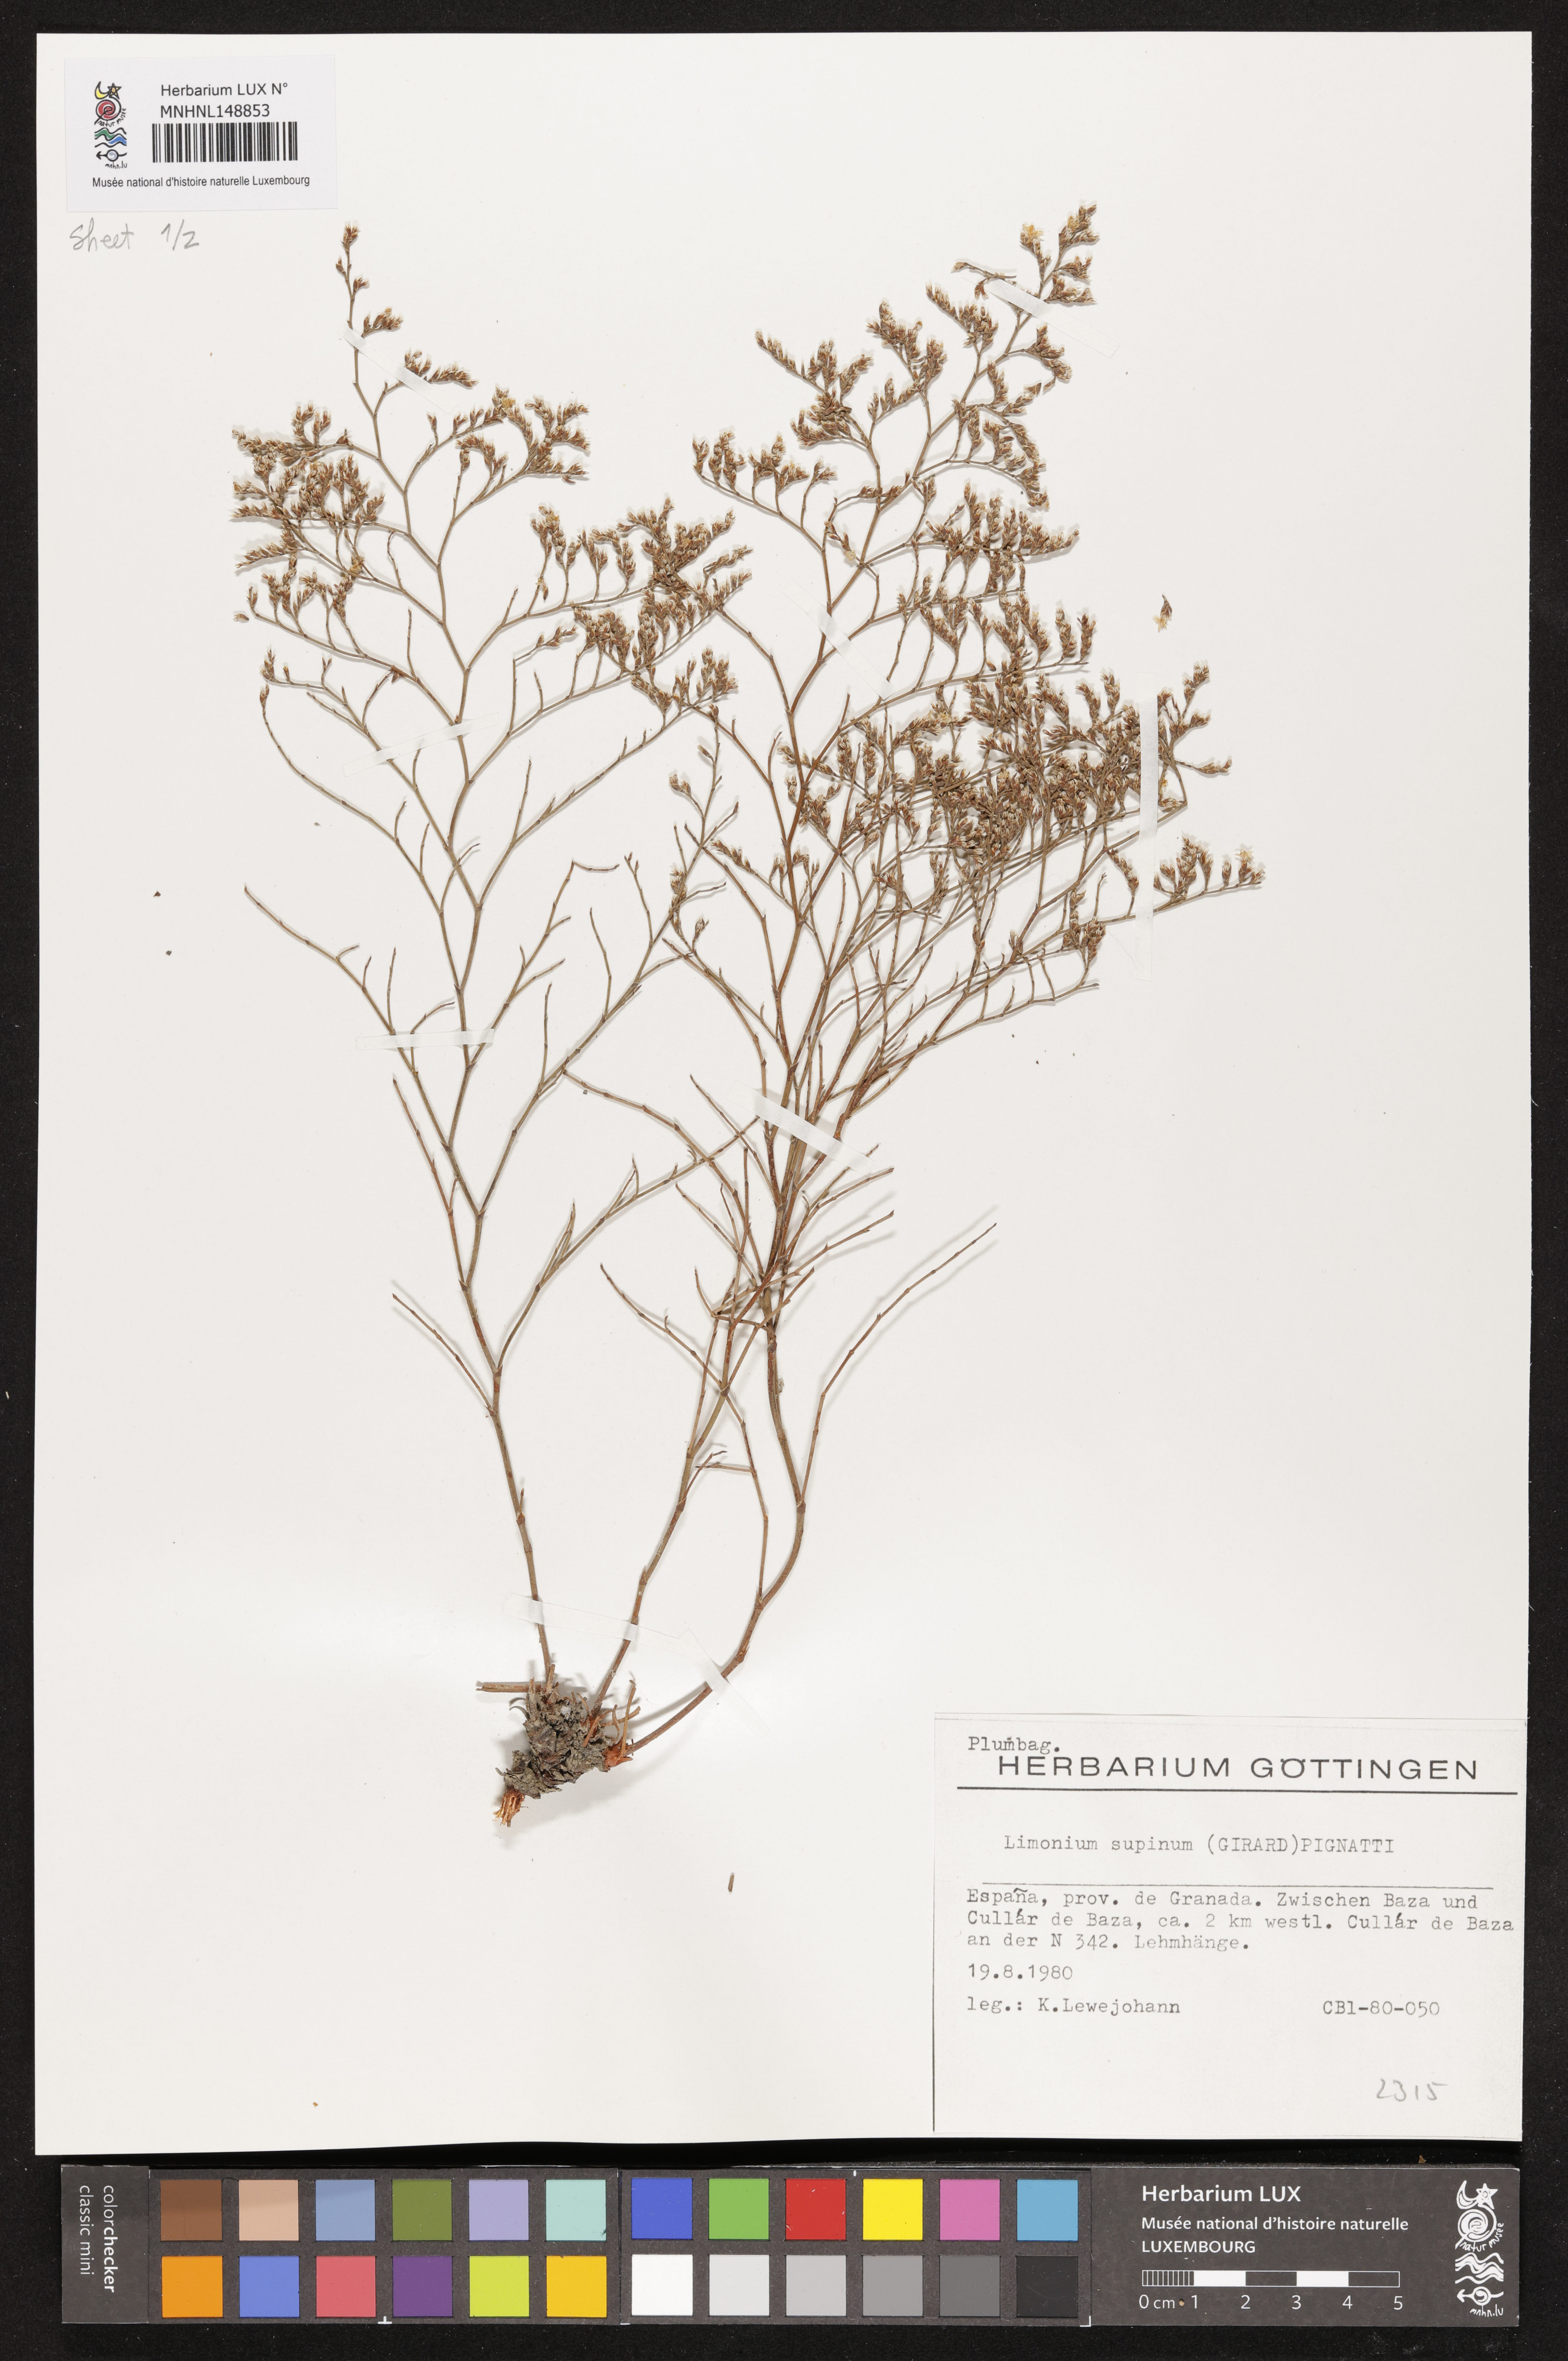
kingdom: Plantae
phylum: Tracheophyta
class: Magnoliopsida
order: Caryophyllales
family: Plumbaginaceae
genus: Limonium
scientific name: Limonium supinum
